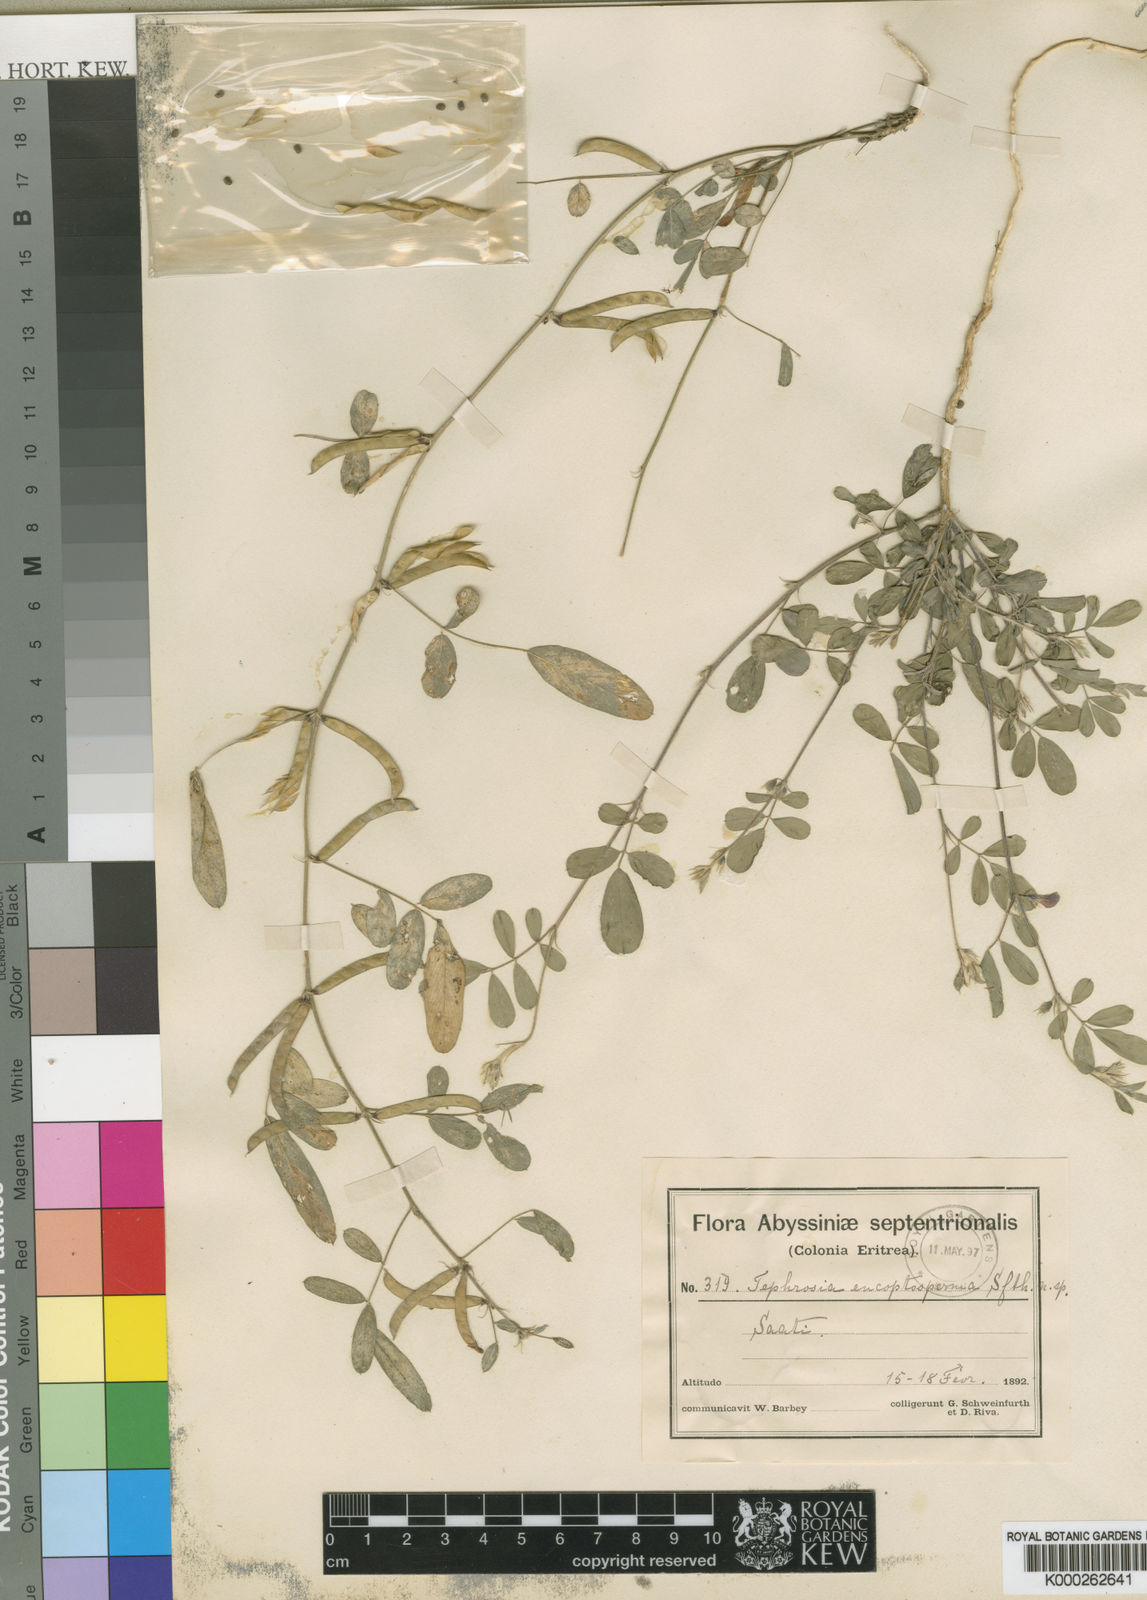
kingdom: Plantae
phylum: Tracheophyta
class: Magnoliopsida
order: Fabales
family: Fabaceae
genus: Tephrosia
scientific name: Tephrosia subtriflora
